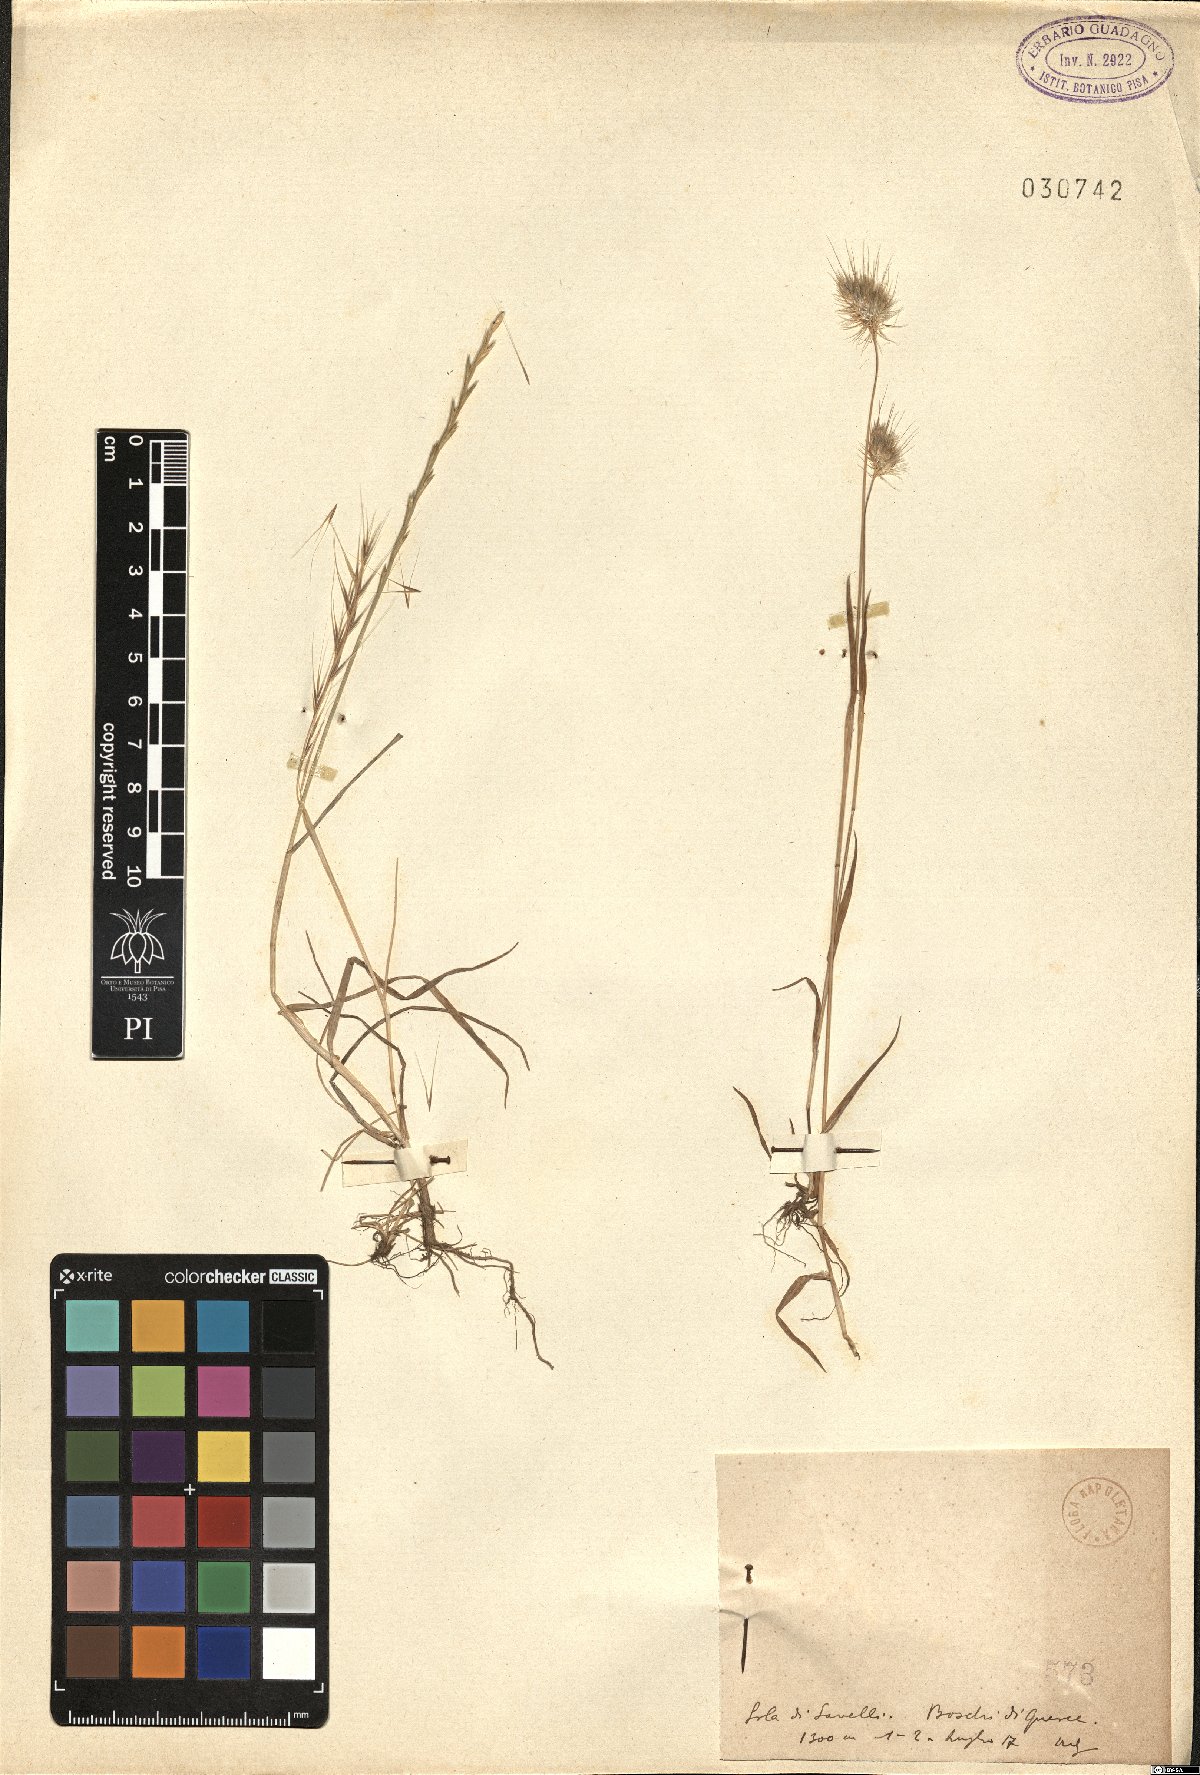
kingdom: Plantae
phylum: Tracheophyta
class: Liliopsida
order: Poales
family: Poaceae
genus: Lolium
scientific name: Lolium
